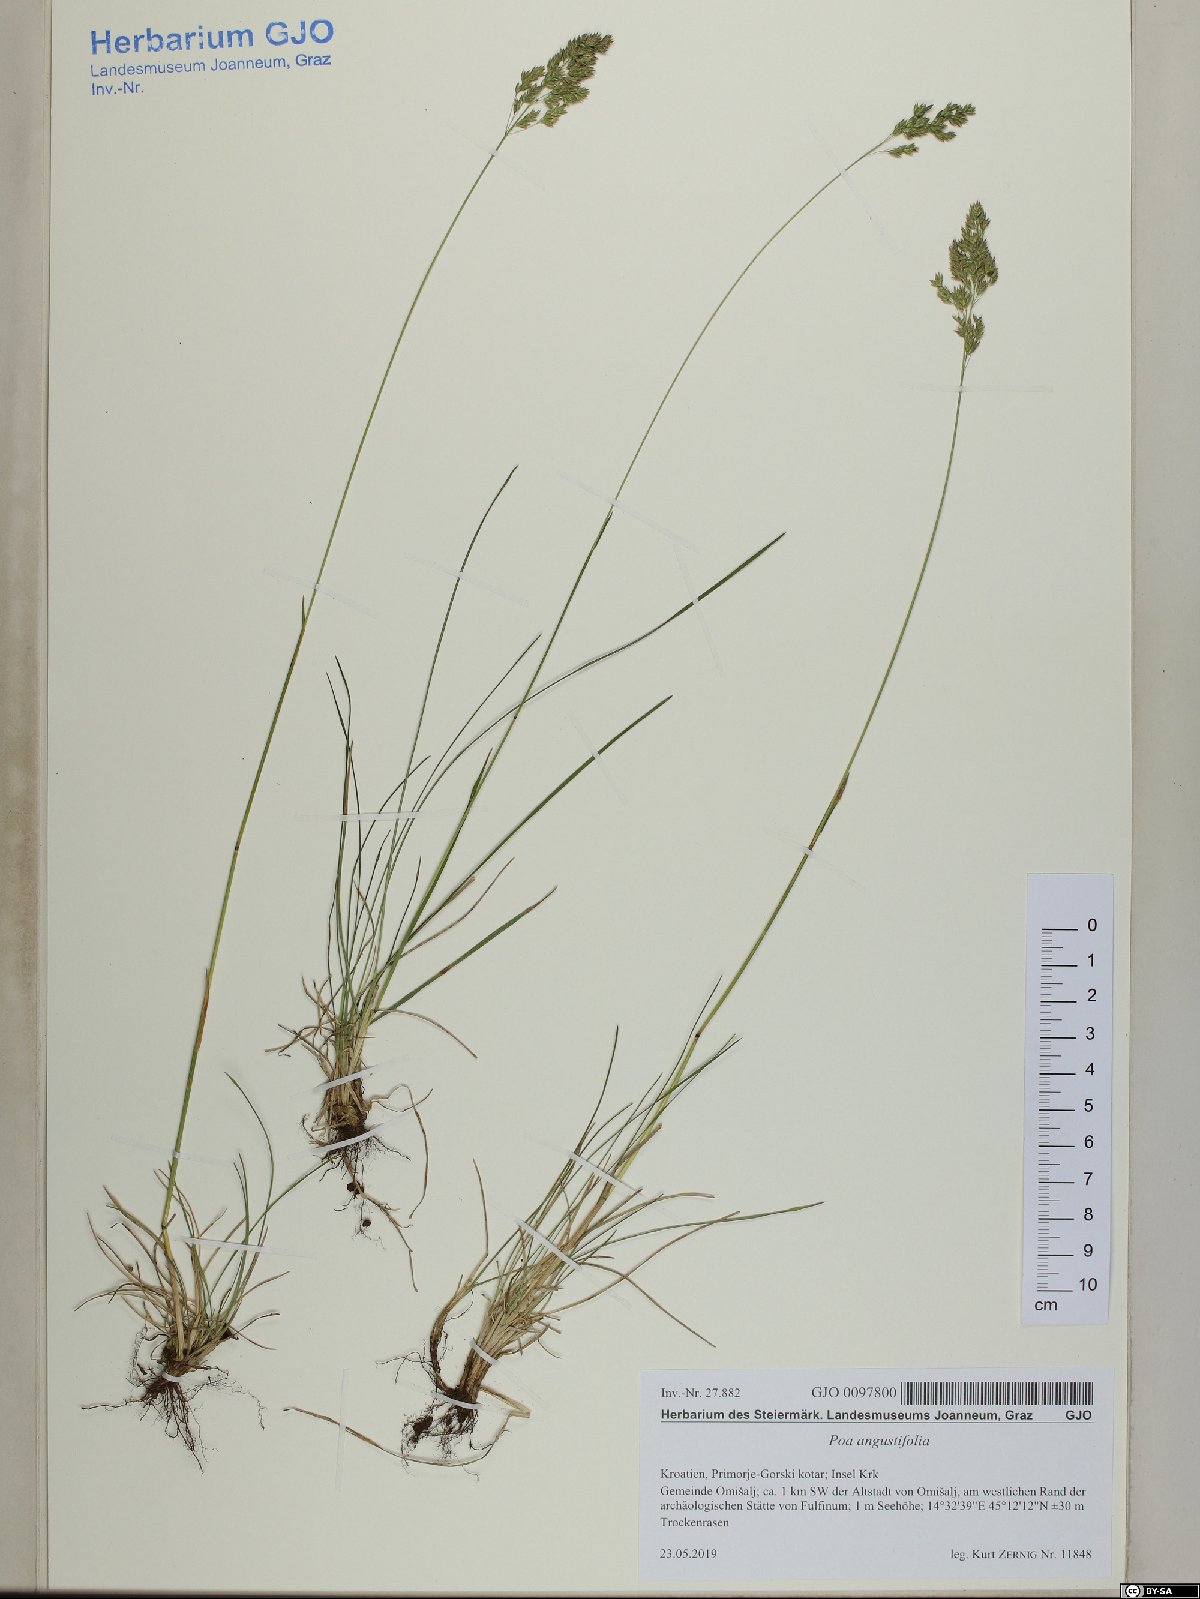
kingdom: Plantae
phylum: Tracheophyta
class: Liliopsida
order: Poales
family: Poaceae
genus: Poa
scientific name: Poa angustifolia
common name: Narrow-leaved meadow-grass
